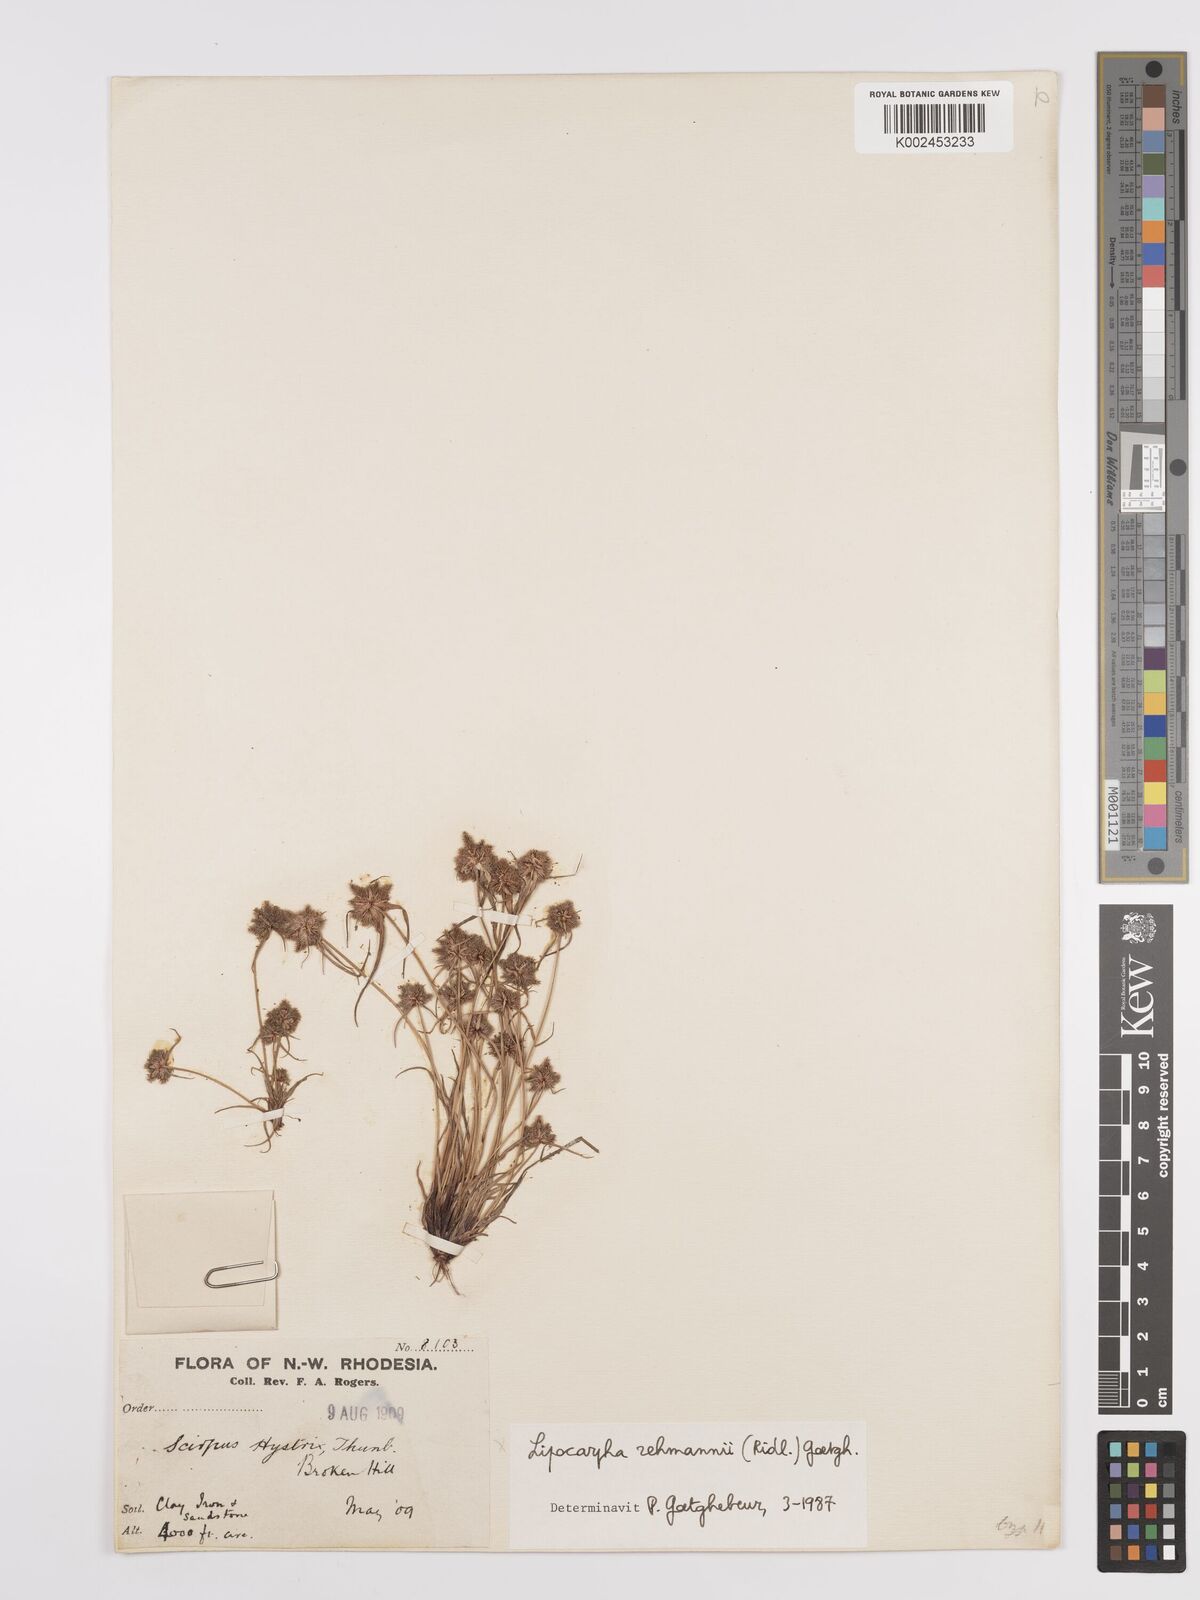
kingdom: Plantae
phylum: Tracheophyta
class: Liliopsida
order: Poales
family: Cyperaceae
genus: Cyperus
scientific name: Cyperus sanguinolentus
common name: Purpleglume flatsedge
